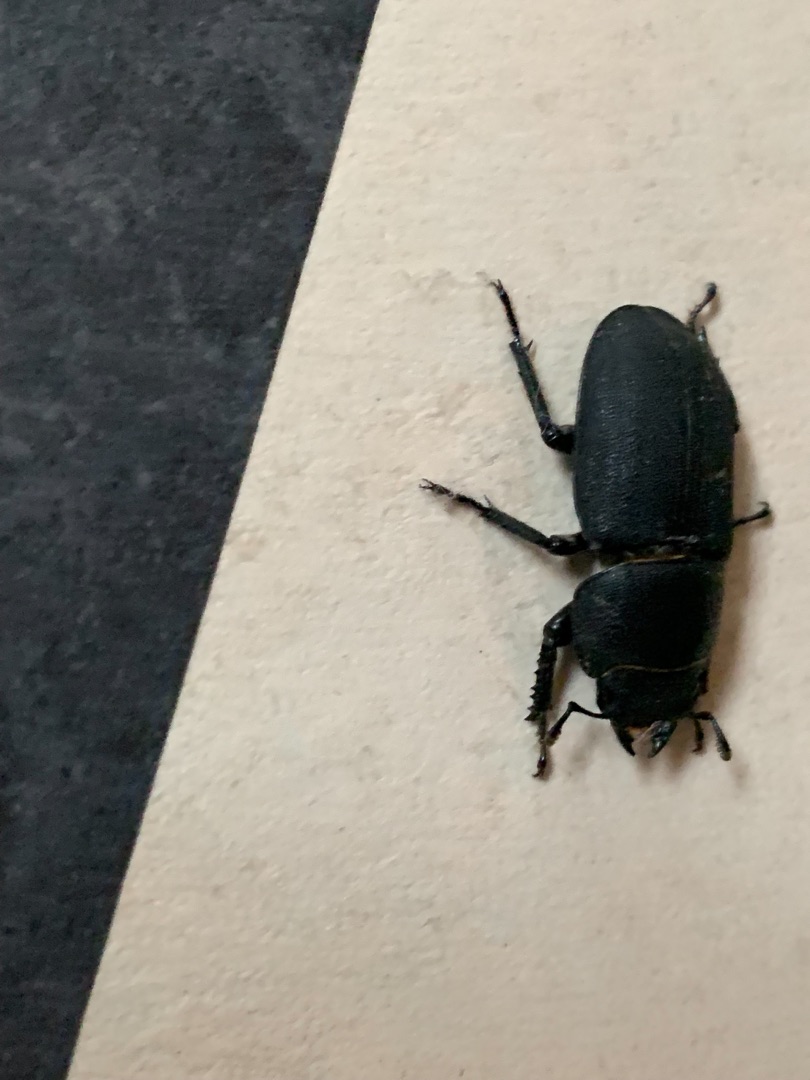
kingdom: Animalia
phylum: Arthropoda
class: Insecta
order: Coleoptera
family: Lucanidae
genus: Dorcus
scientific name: Dorcus parallelipipedus
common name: Bøghjort
